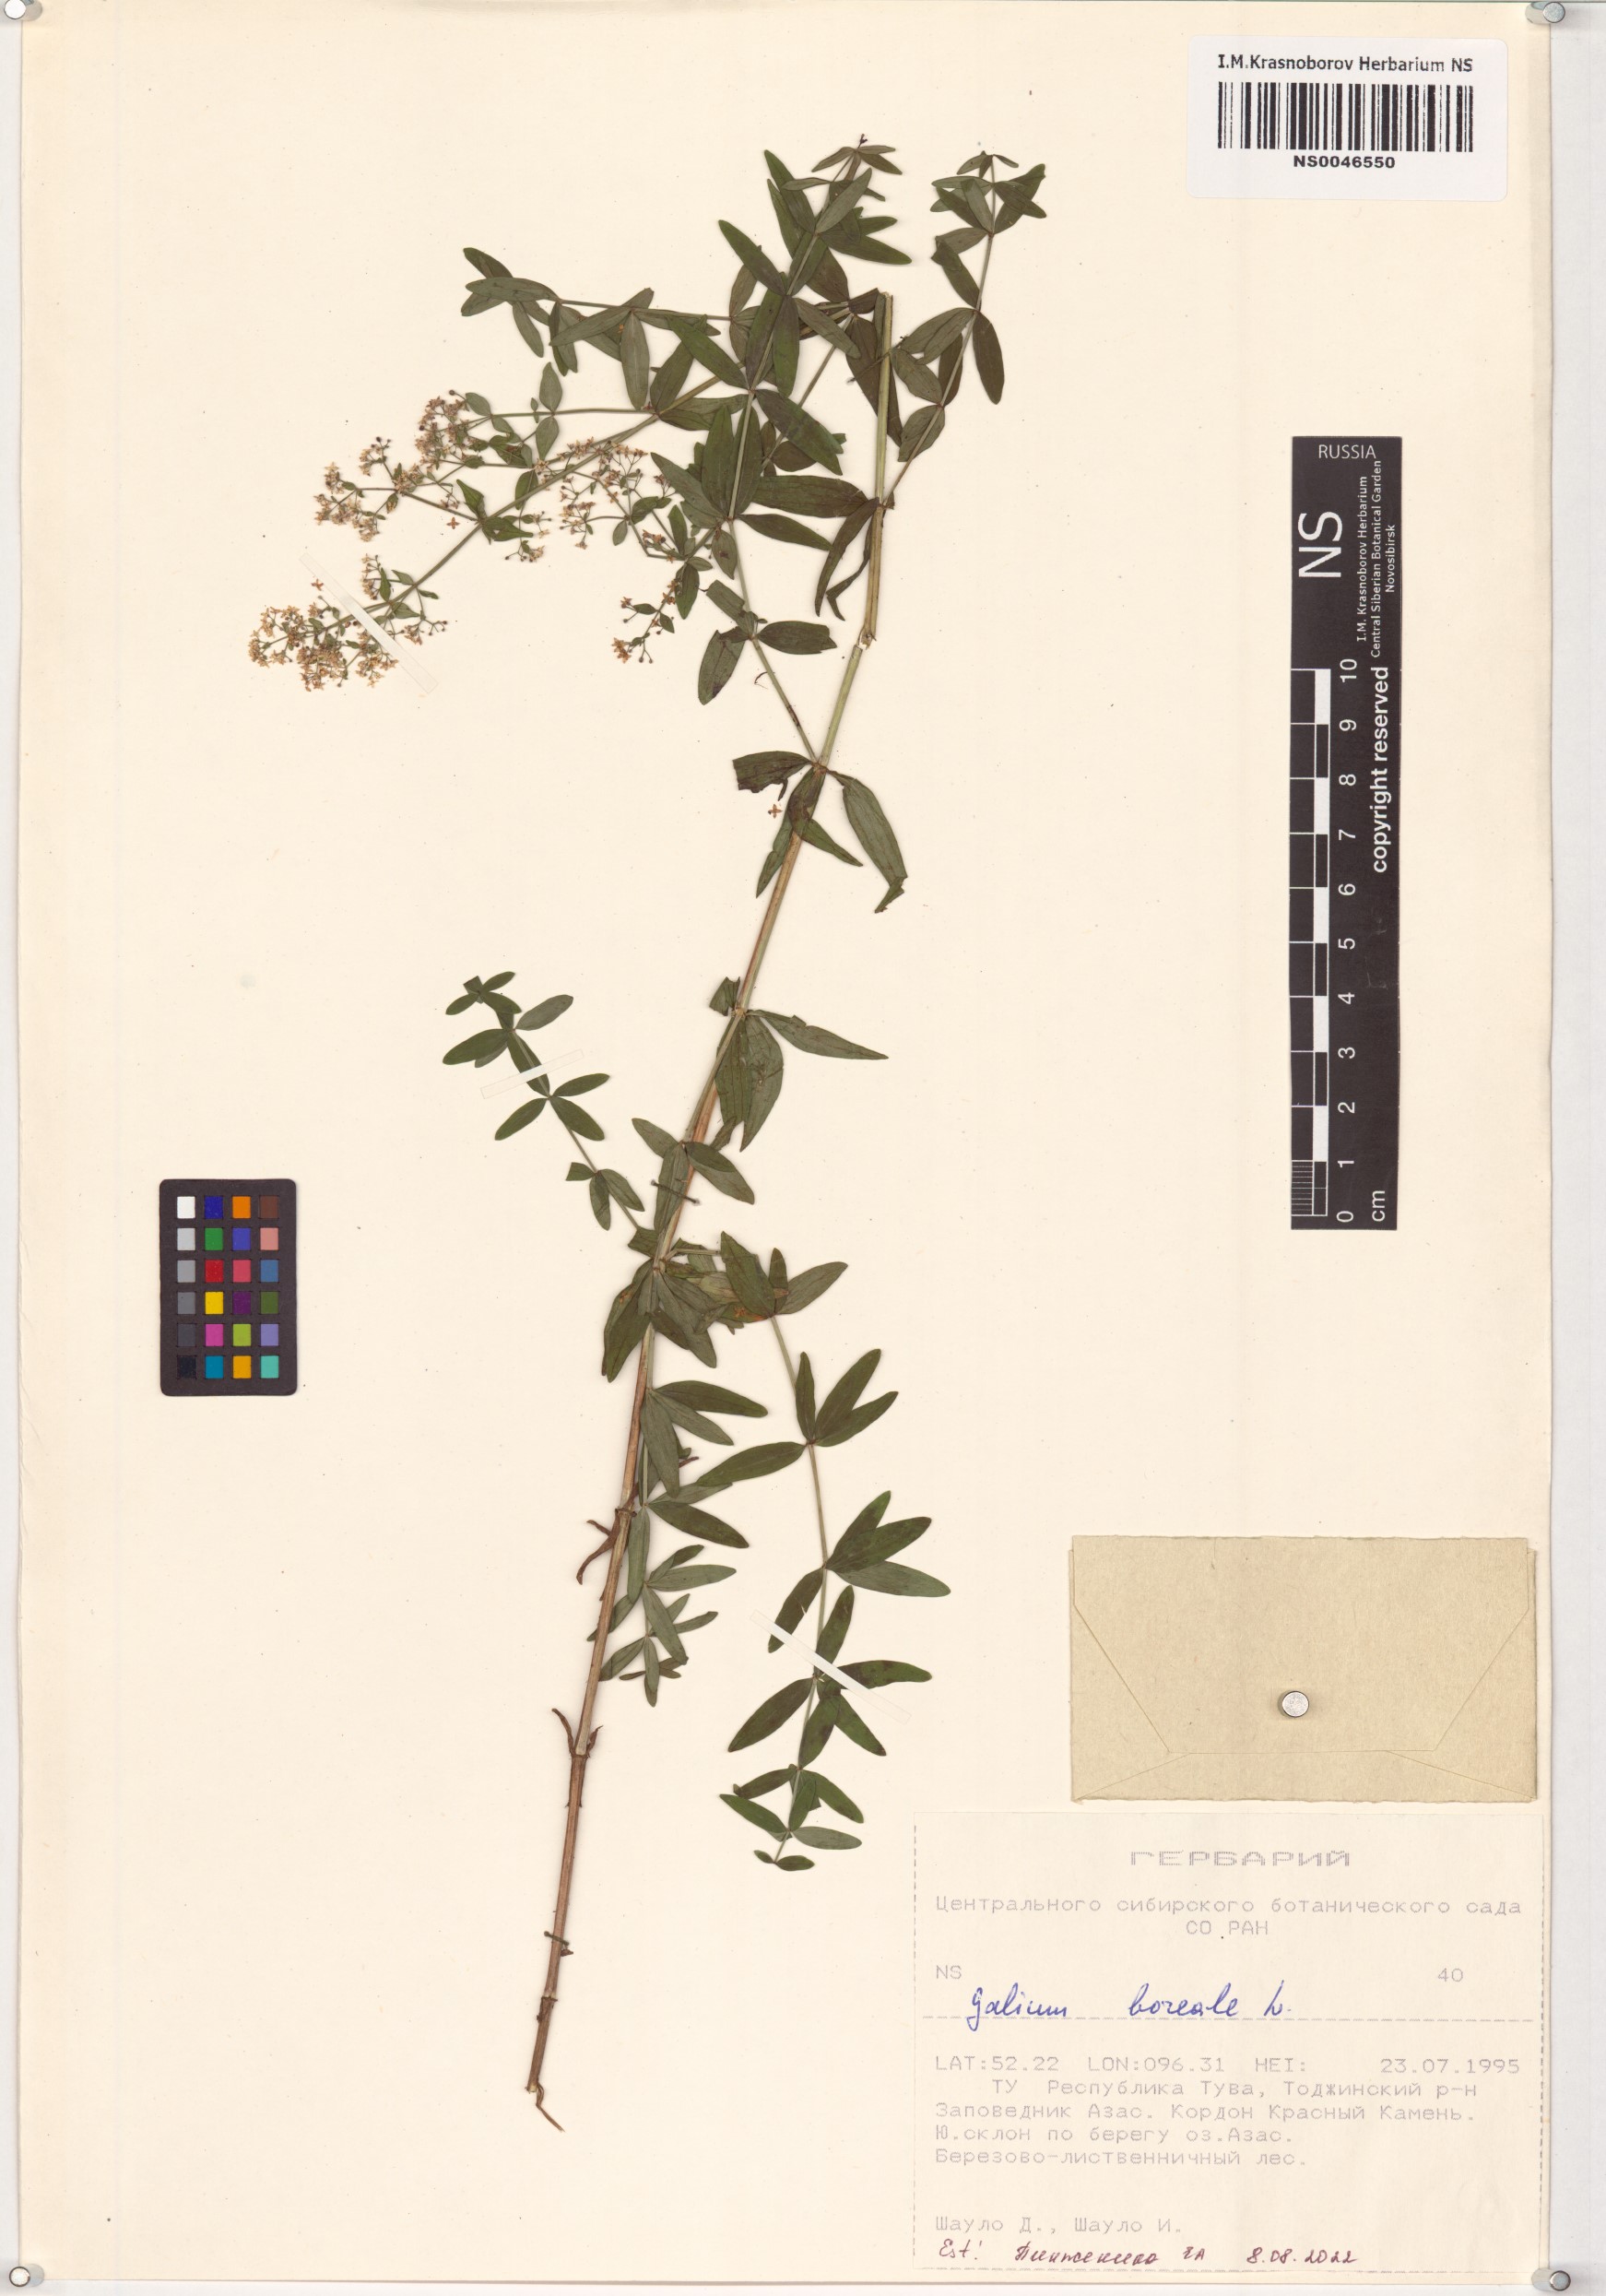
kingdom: Plantae
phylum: Tracheophyta
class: Magnoliopsida
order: Gentianales
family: Rubiaceae
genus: Galium
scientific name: Galium boreale
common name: Northern bedstraw
